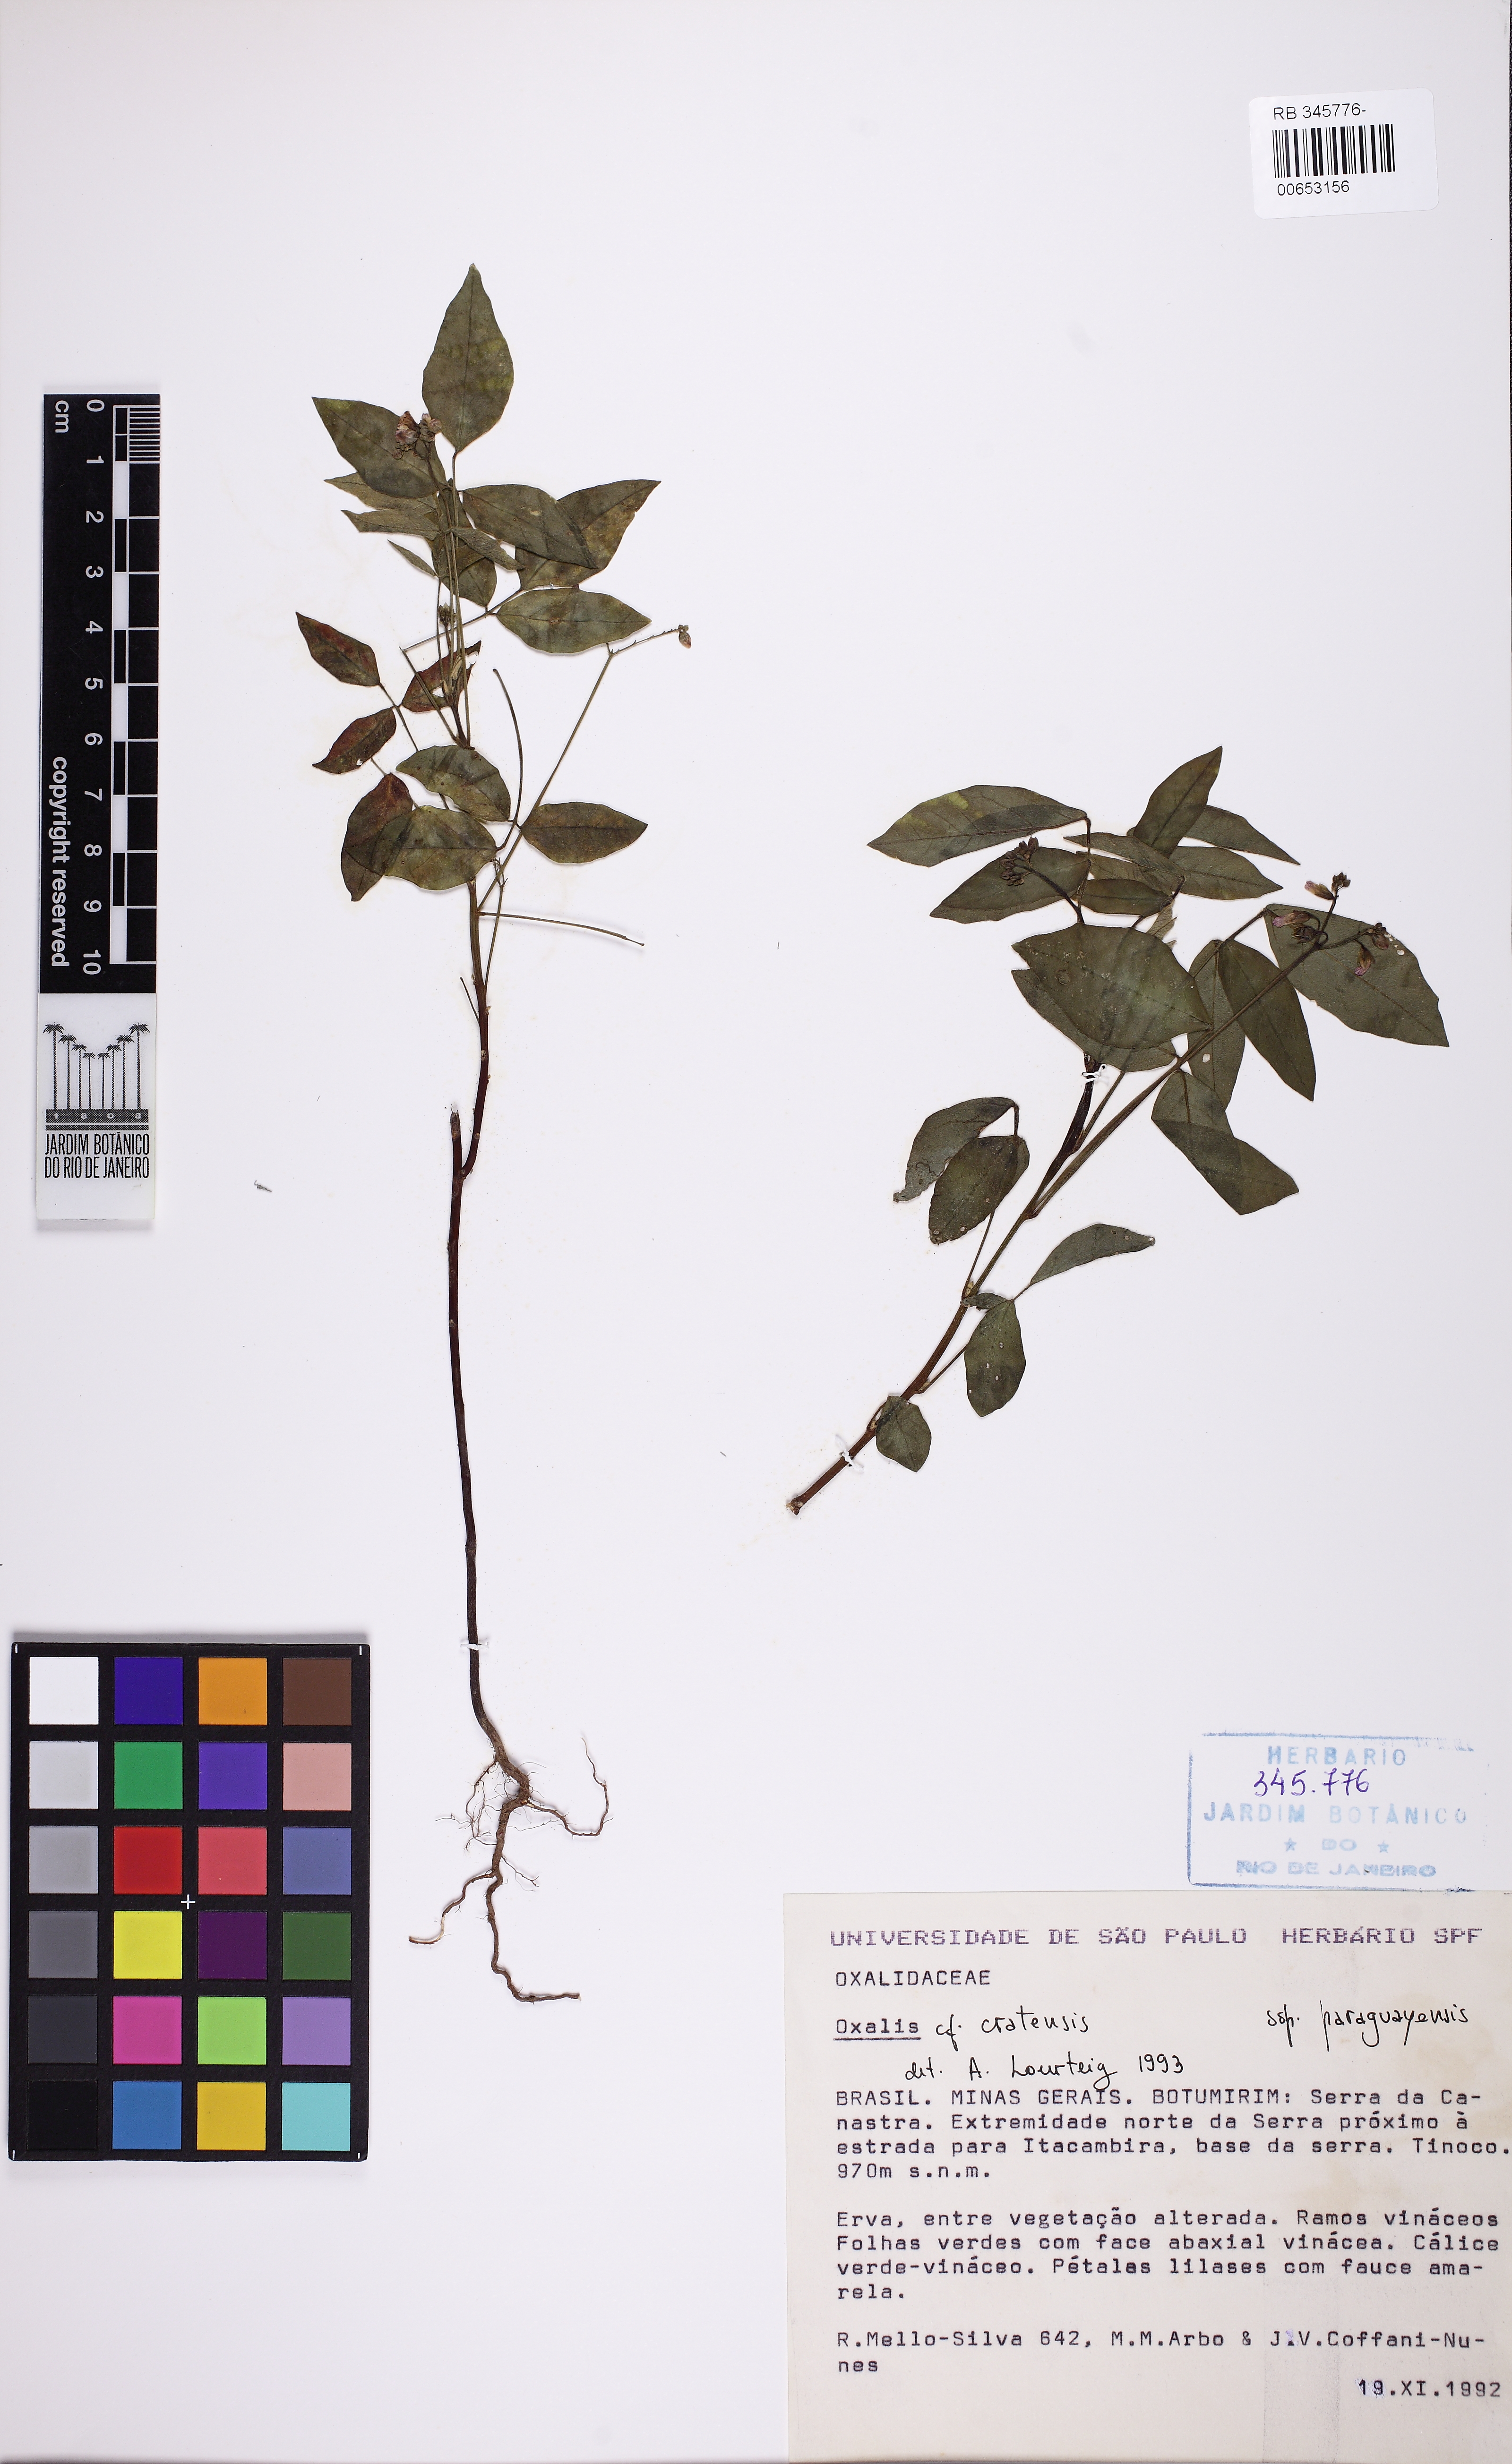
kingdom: Plantae
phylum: Tracheophyta
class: Magnoliopsida
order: Oxalidales
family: Oxalidaceae
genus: Oxalis
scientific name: Oxalis cratensis
